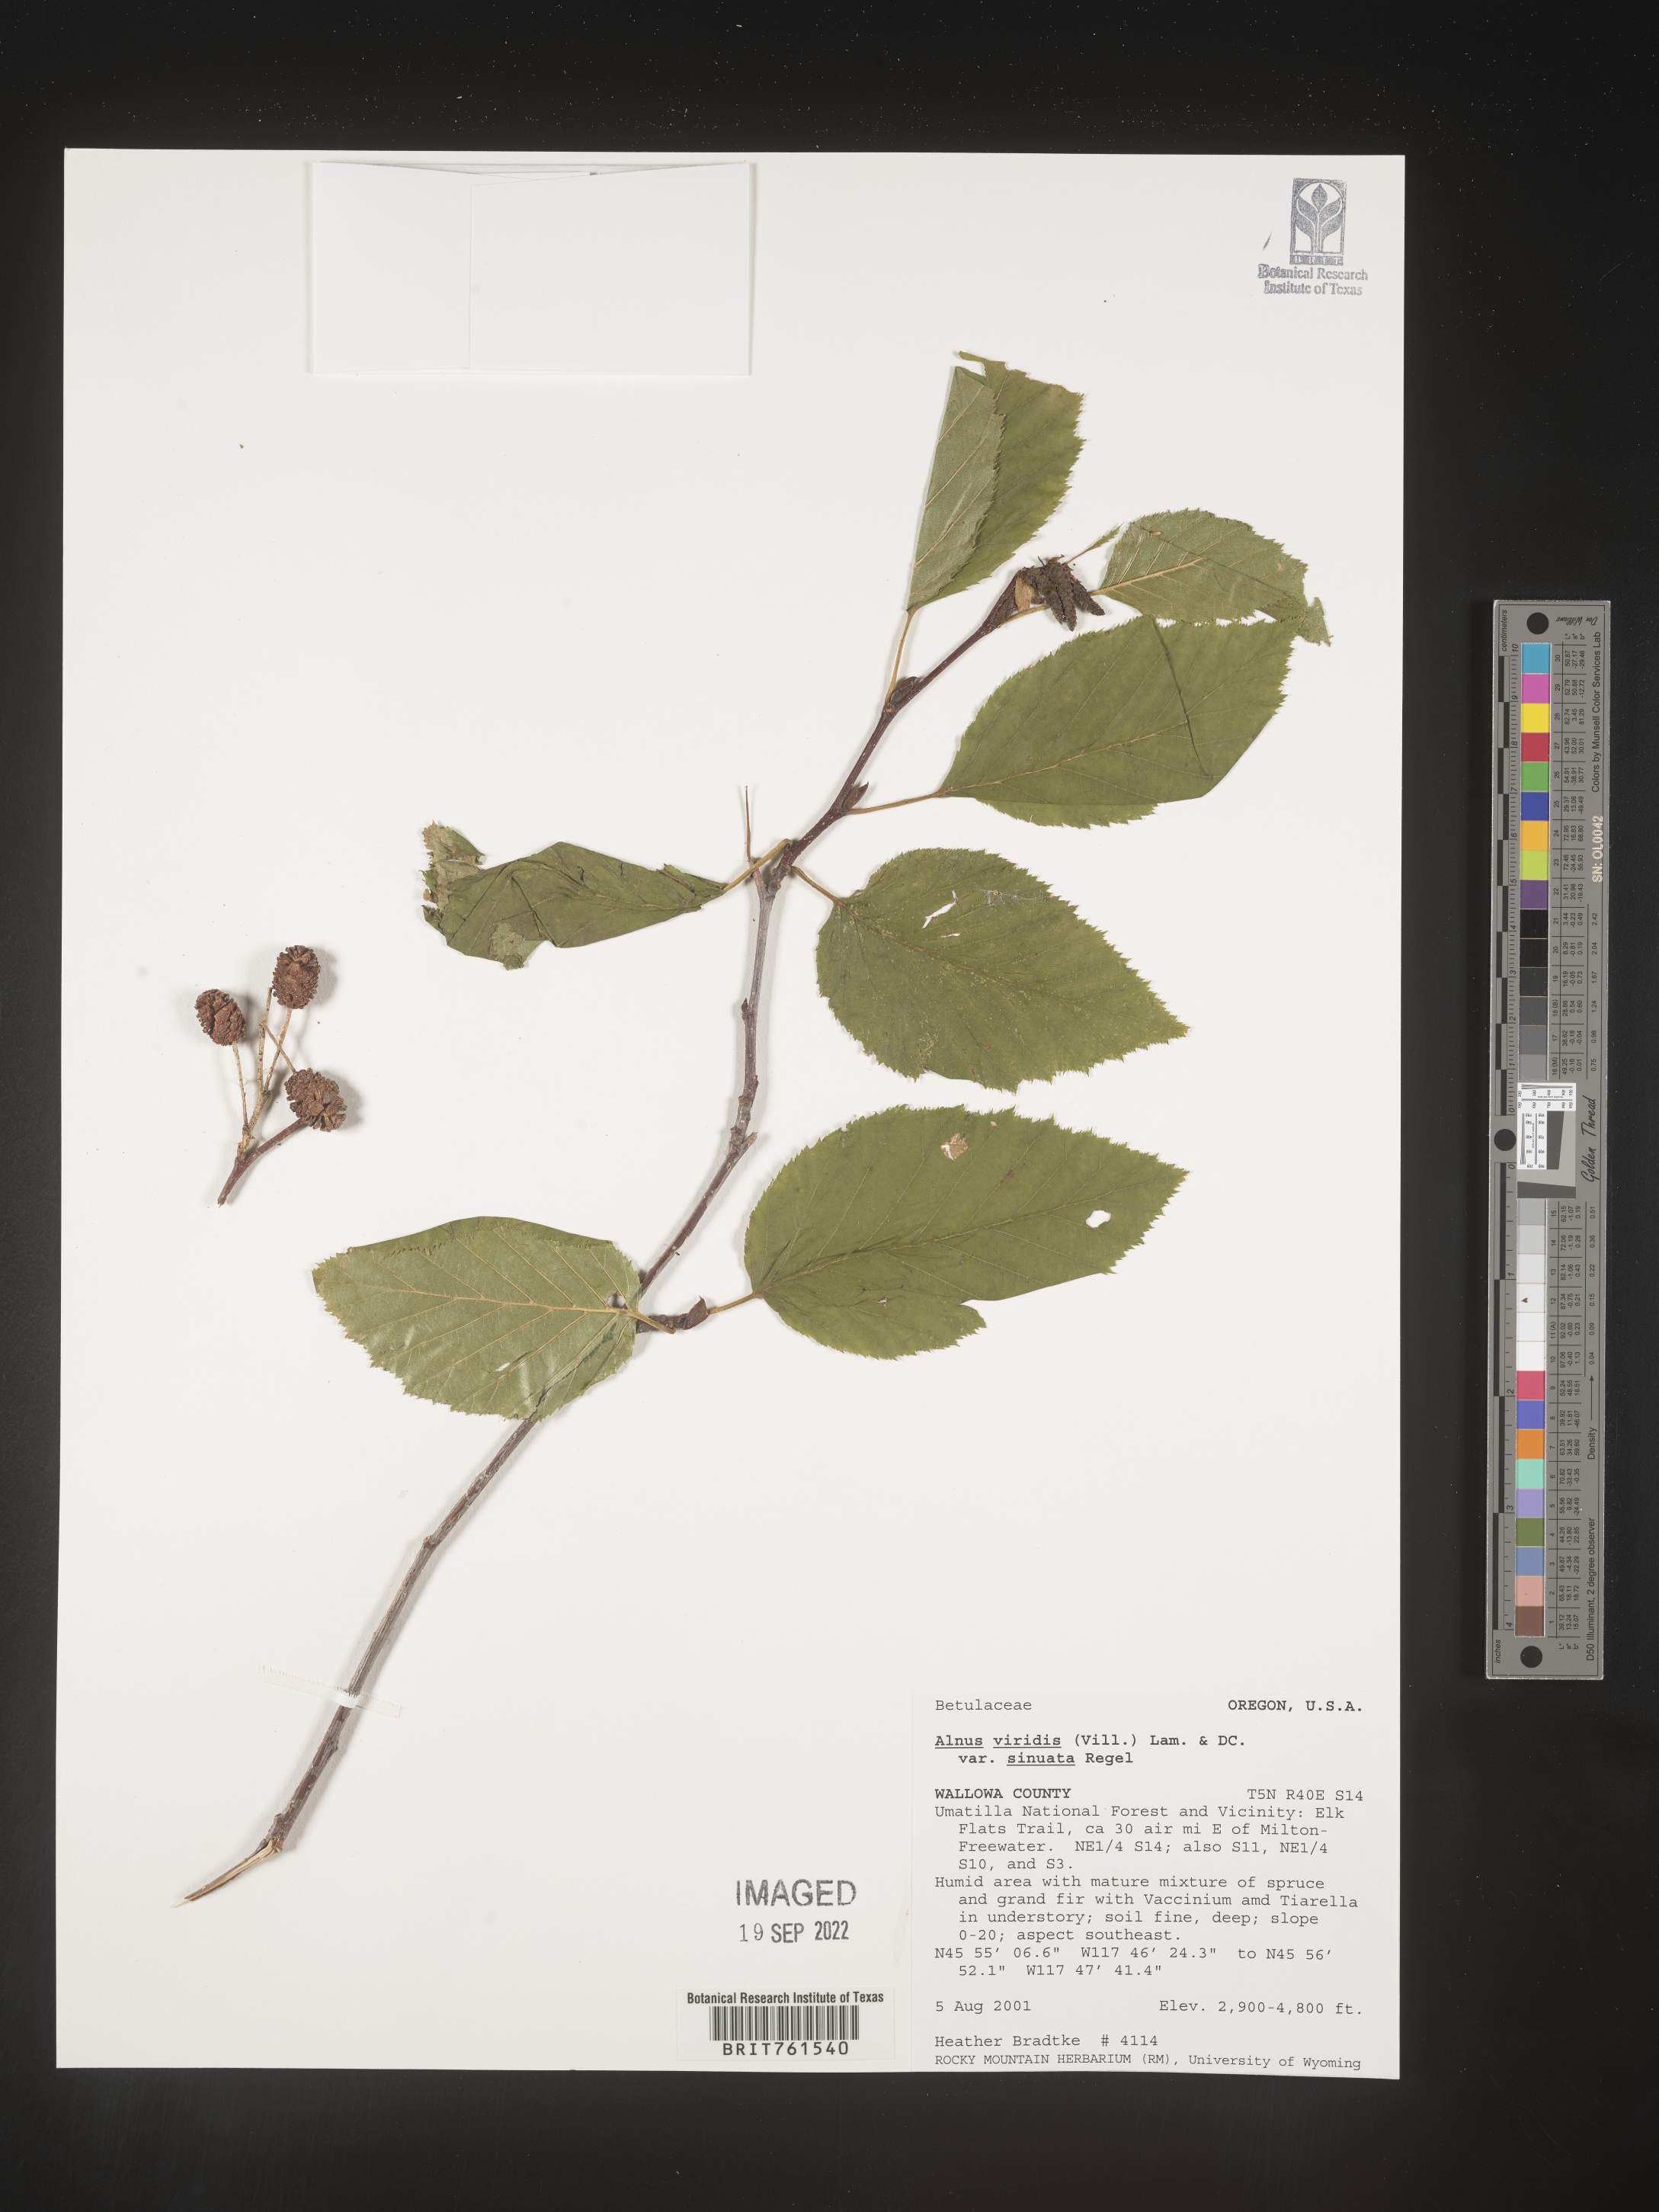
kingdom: Plantae
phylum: Tracheophyta
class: Magnoliopsida
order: Fagales
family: Betulaceae
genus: Alnus
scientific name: Alnus alnobetula
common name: Green alder
